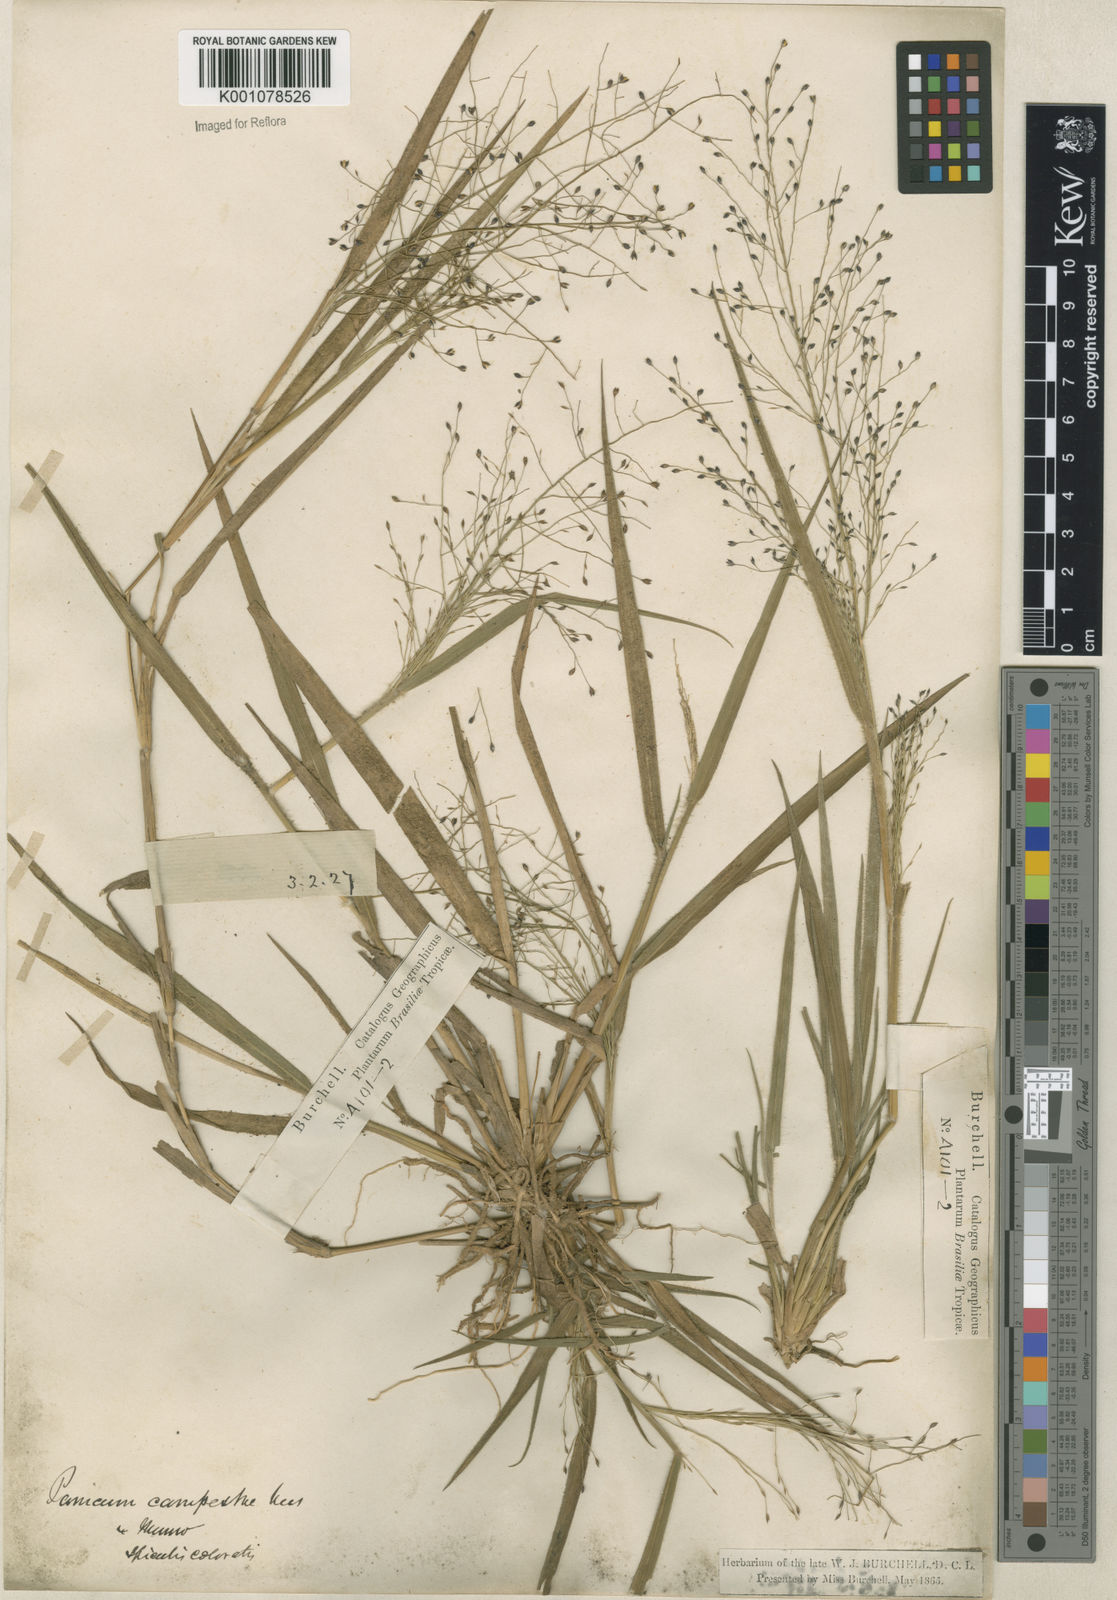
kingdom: Plantae
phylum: Tracheophyta
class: Liliopsida
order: Poales
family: Poaceae
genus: Panicum
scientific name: Panicum campestre
